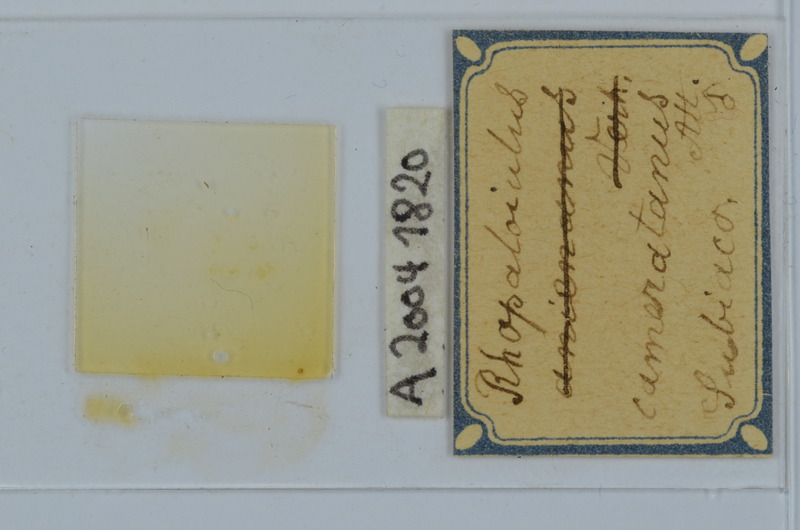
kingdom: Animalia
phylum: Arthropoda
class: Diplopoda
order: Julida
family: Rhopaloiulidae
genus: Rhopaloiulus
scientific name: Rhopaloiulus cameratanus
